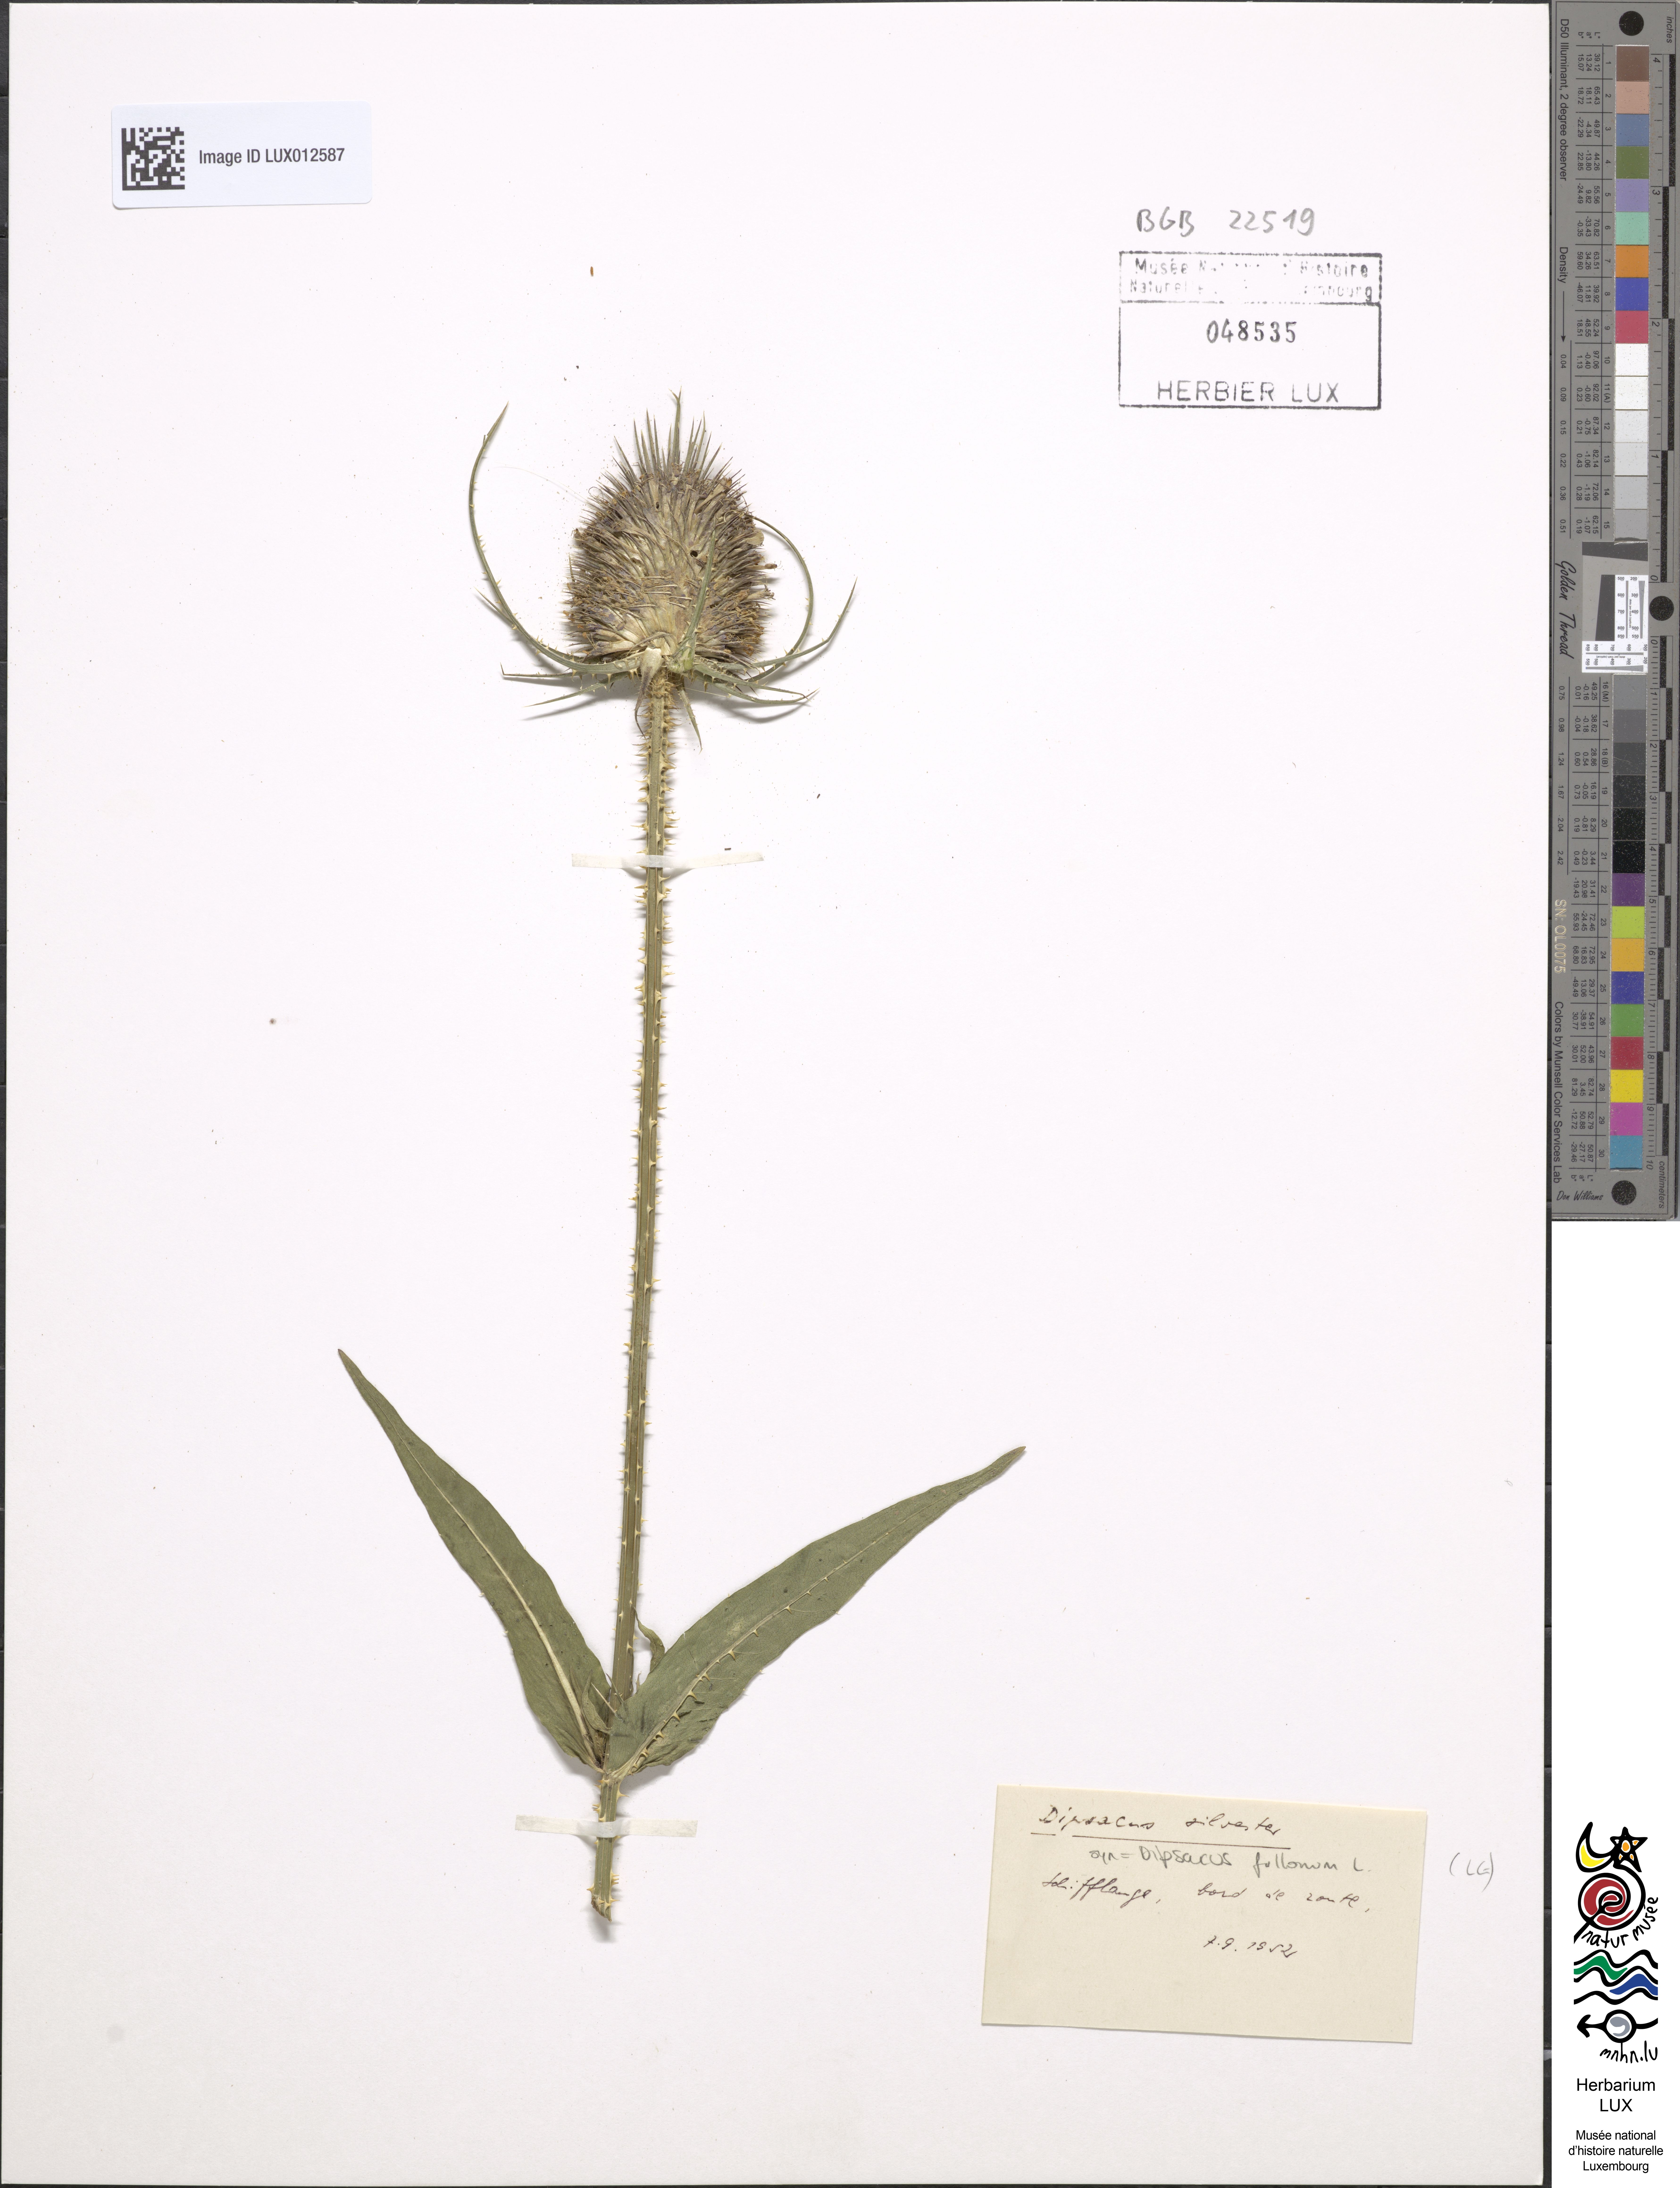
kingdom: Plantae
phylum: Tracheophyta
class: Magnoliopsida
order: Dipsacales
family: Caprifoliaceae
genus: Dipsacus
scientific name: Dipsacus fullonum
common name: Teasel
